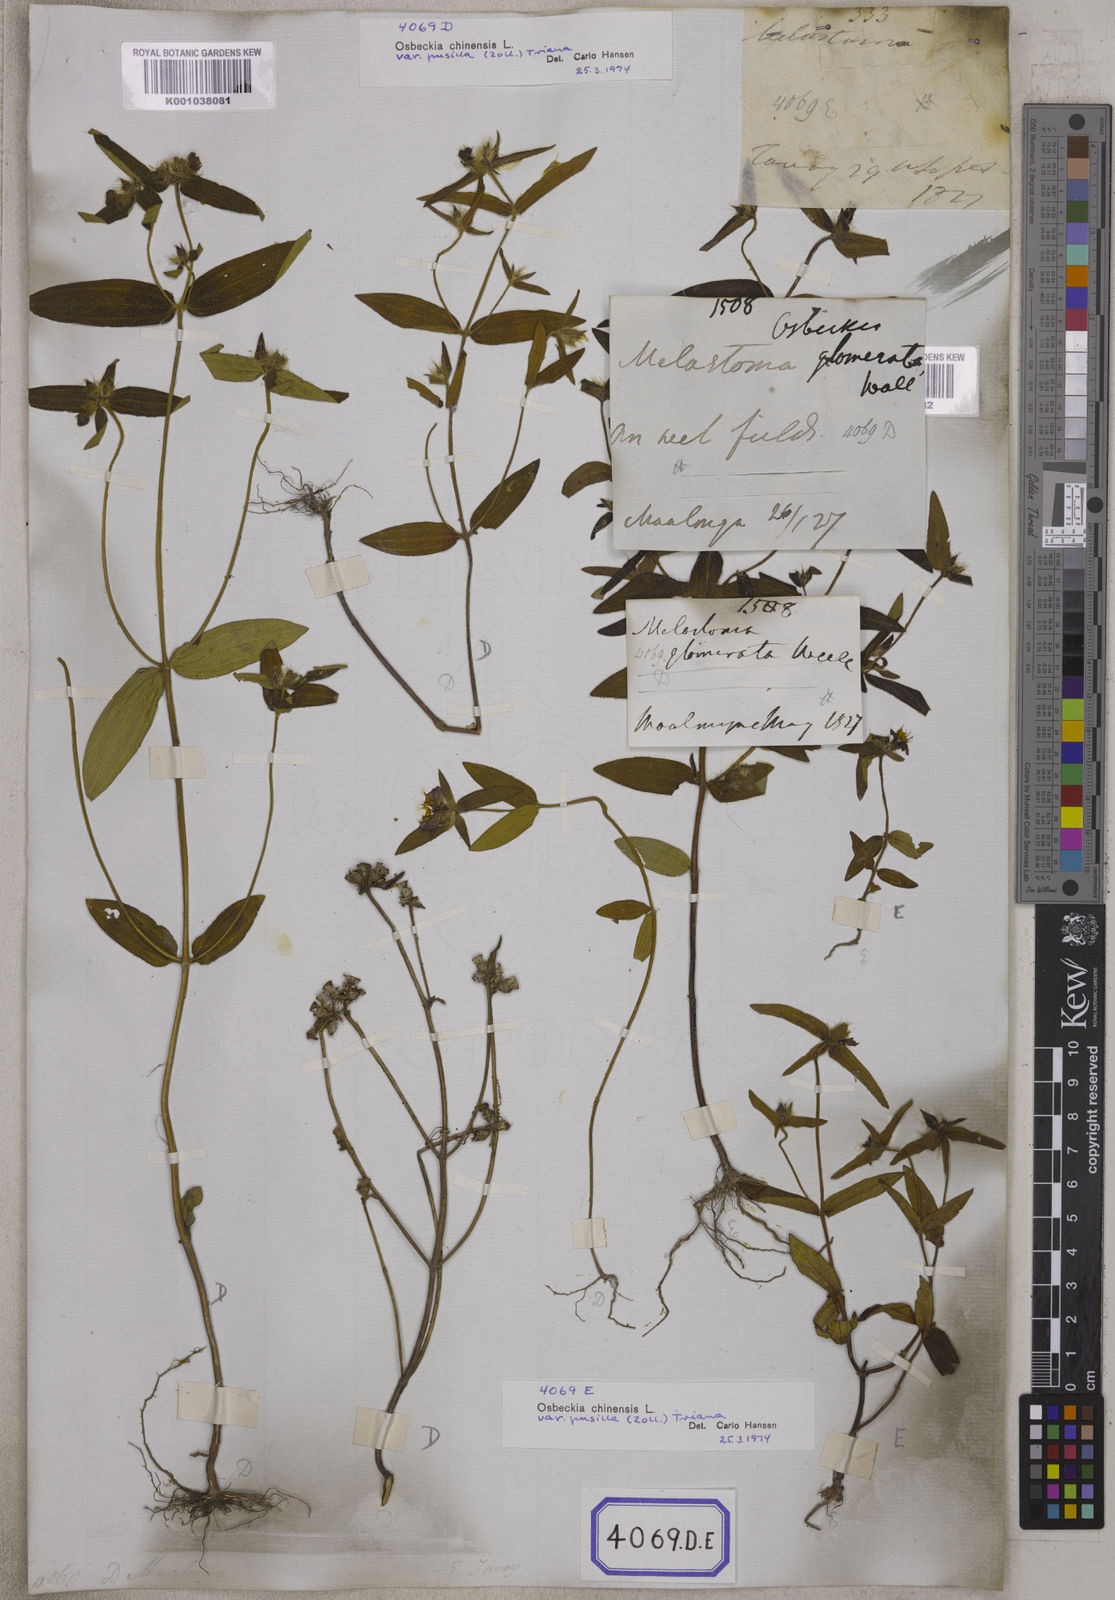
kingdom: Plantae
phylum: Tracheophyta
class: Magnoliopsida
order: Myrtales
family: Melastomataceae
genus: Osbeckia
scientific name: Osbeckia zeylanica
